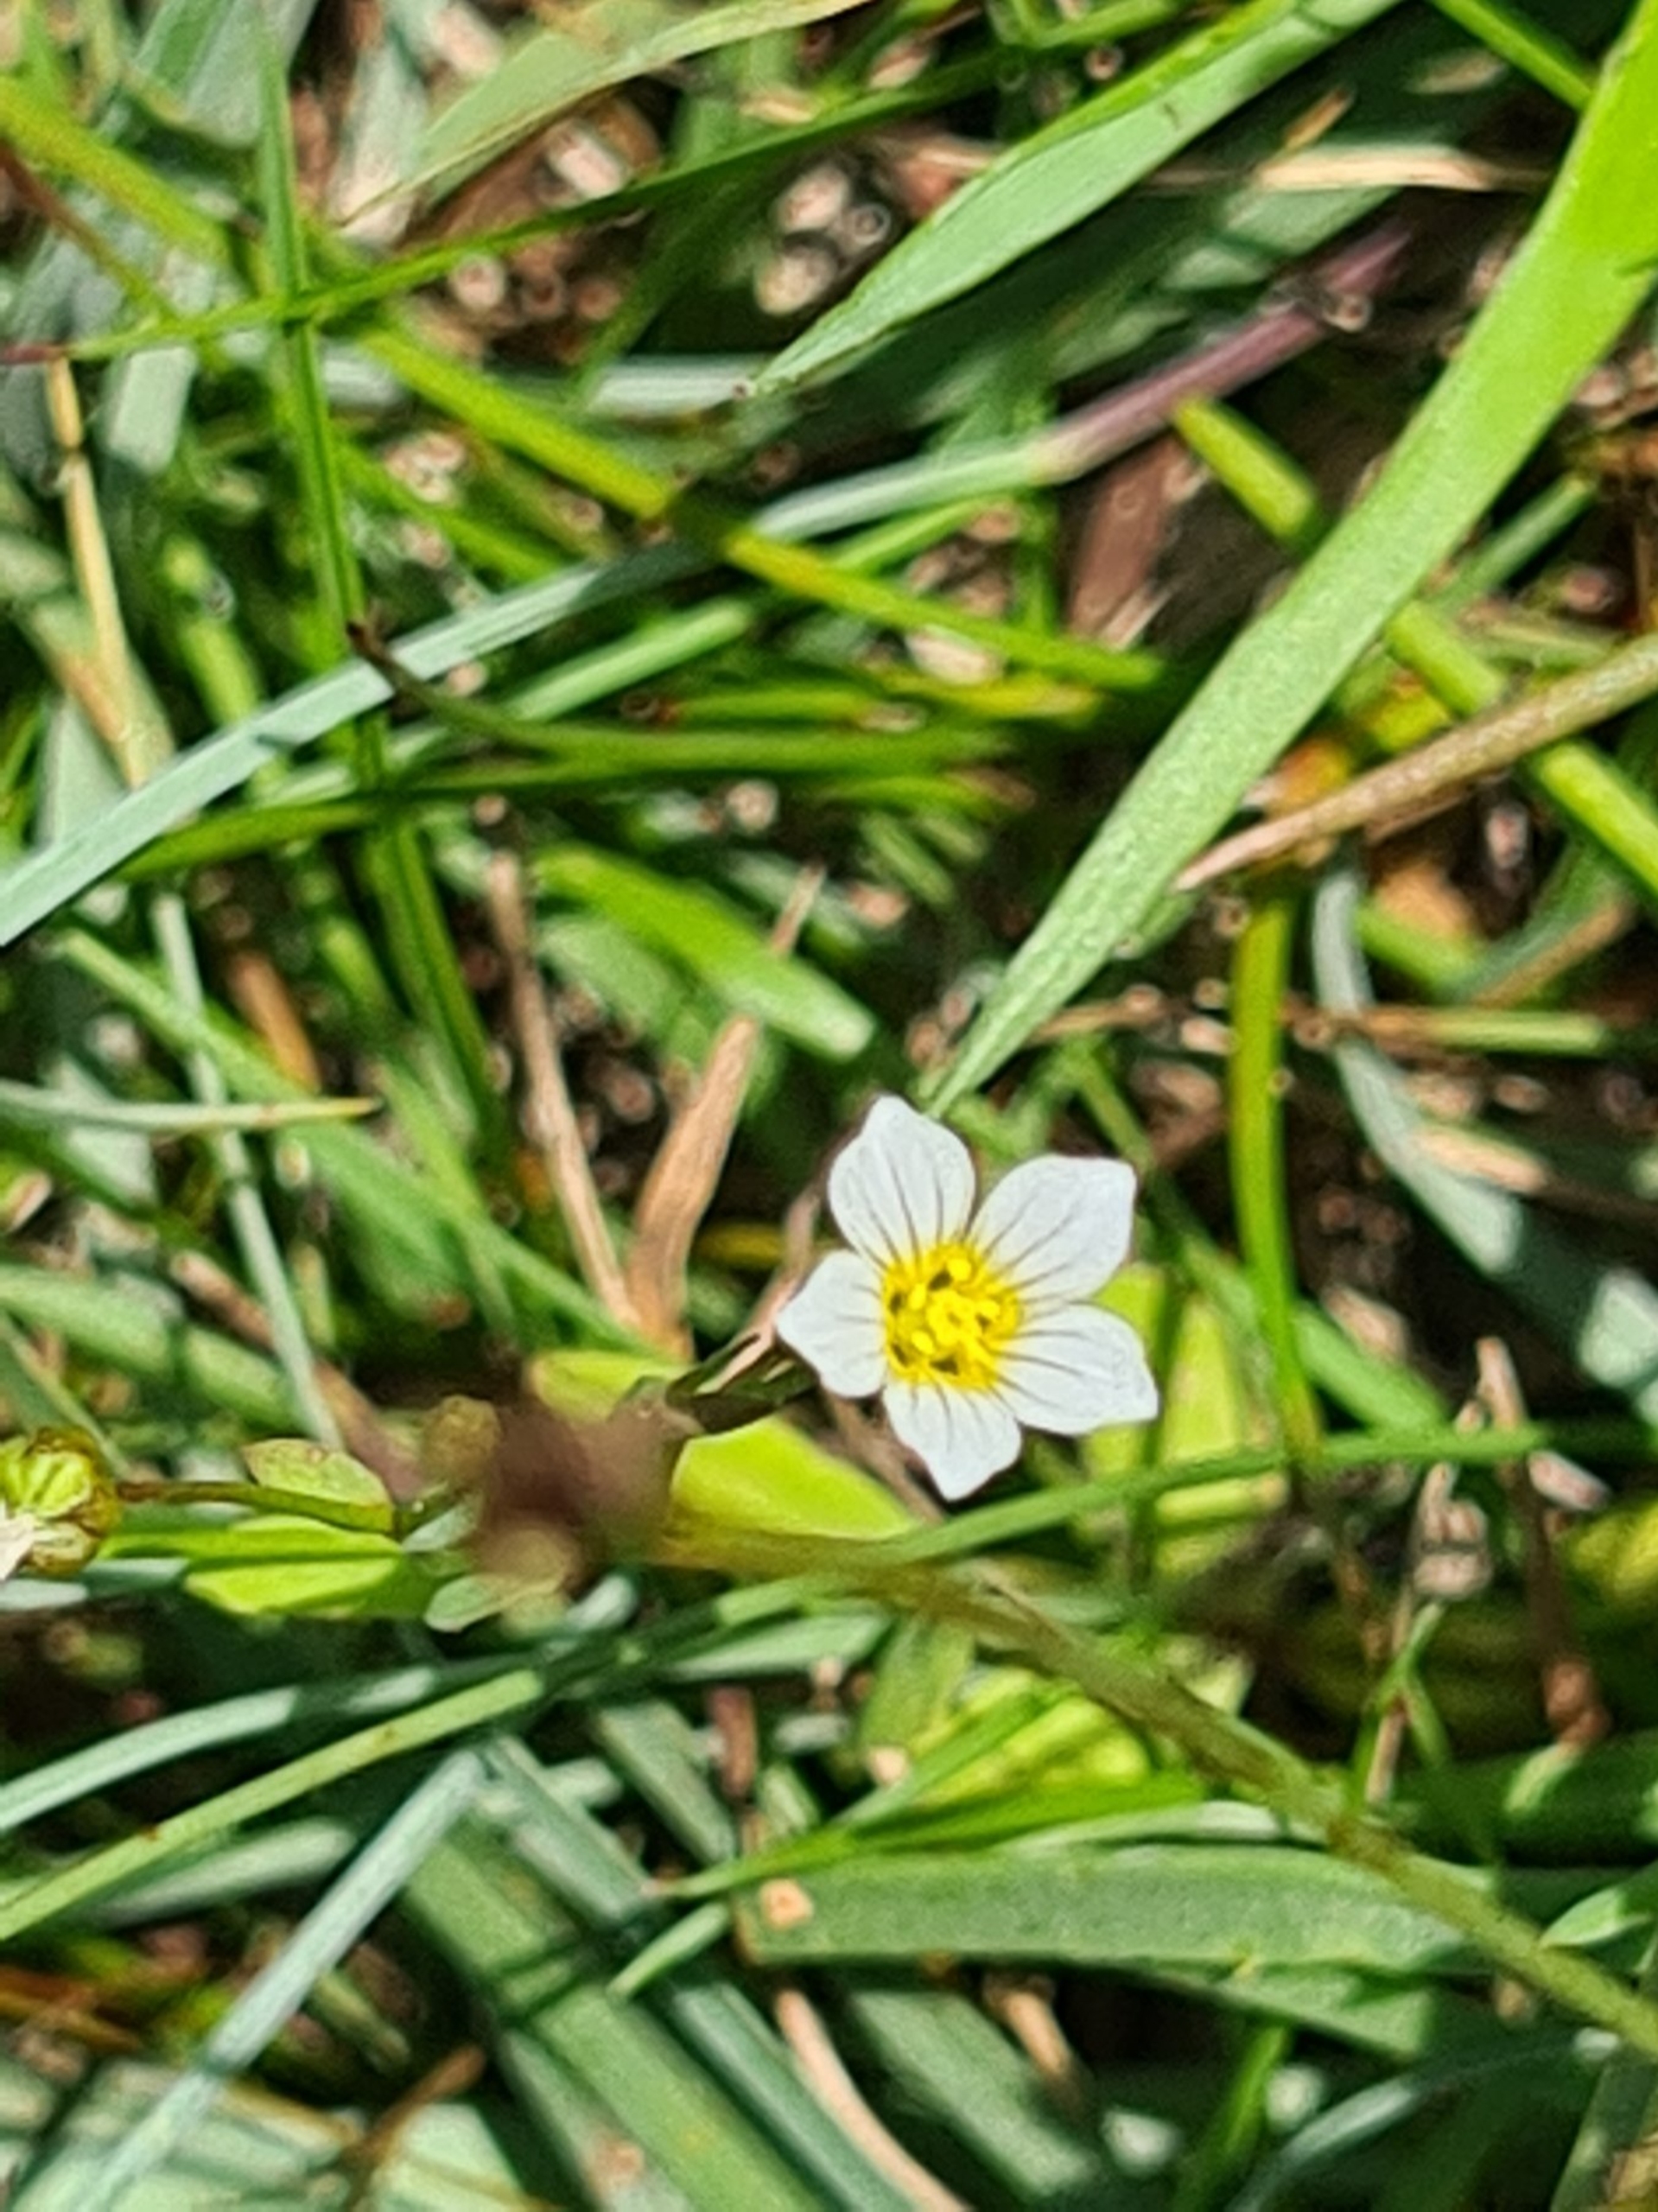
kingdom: Plantae
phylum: Tracheophyta
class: Magnoliopsida
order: Malpighiales
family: Linaceae
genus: Linum
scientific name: Linum catharticum
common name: Vild hør
